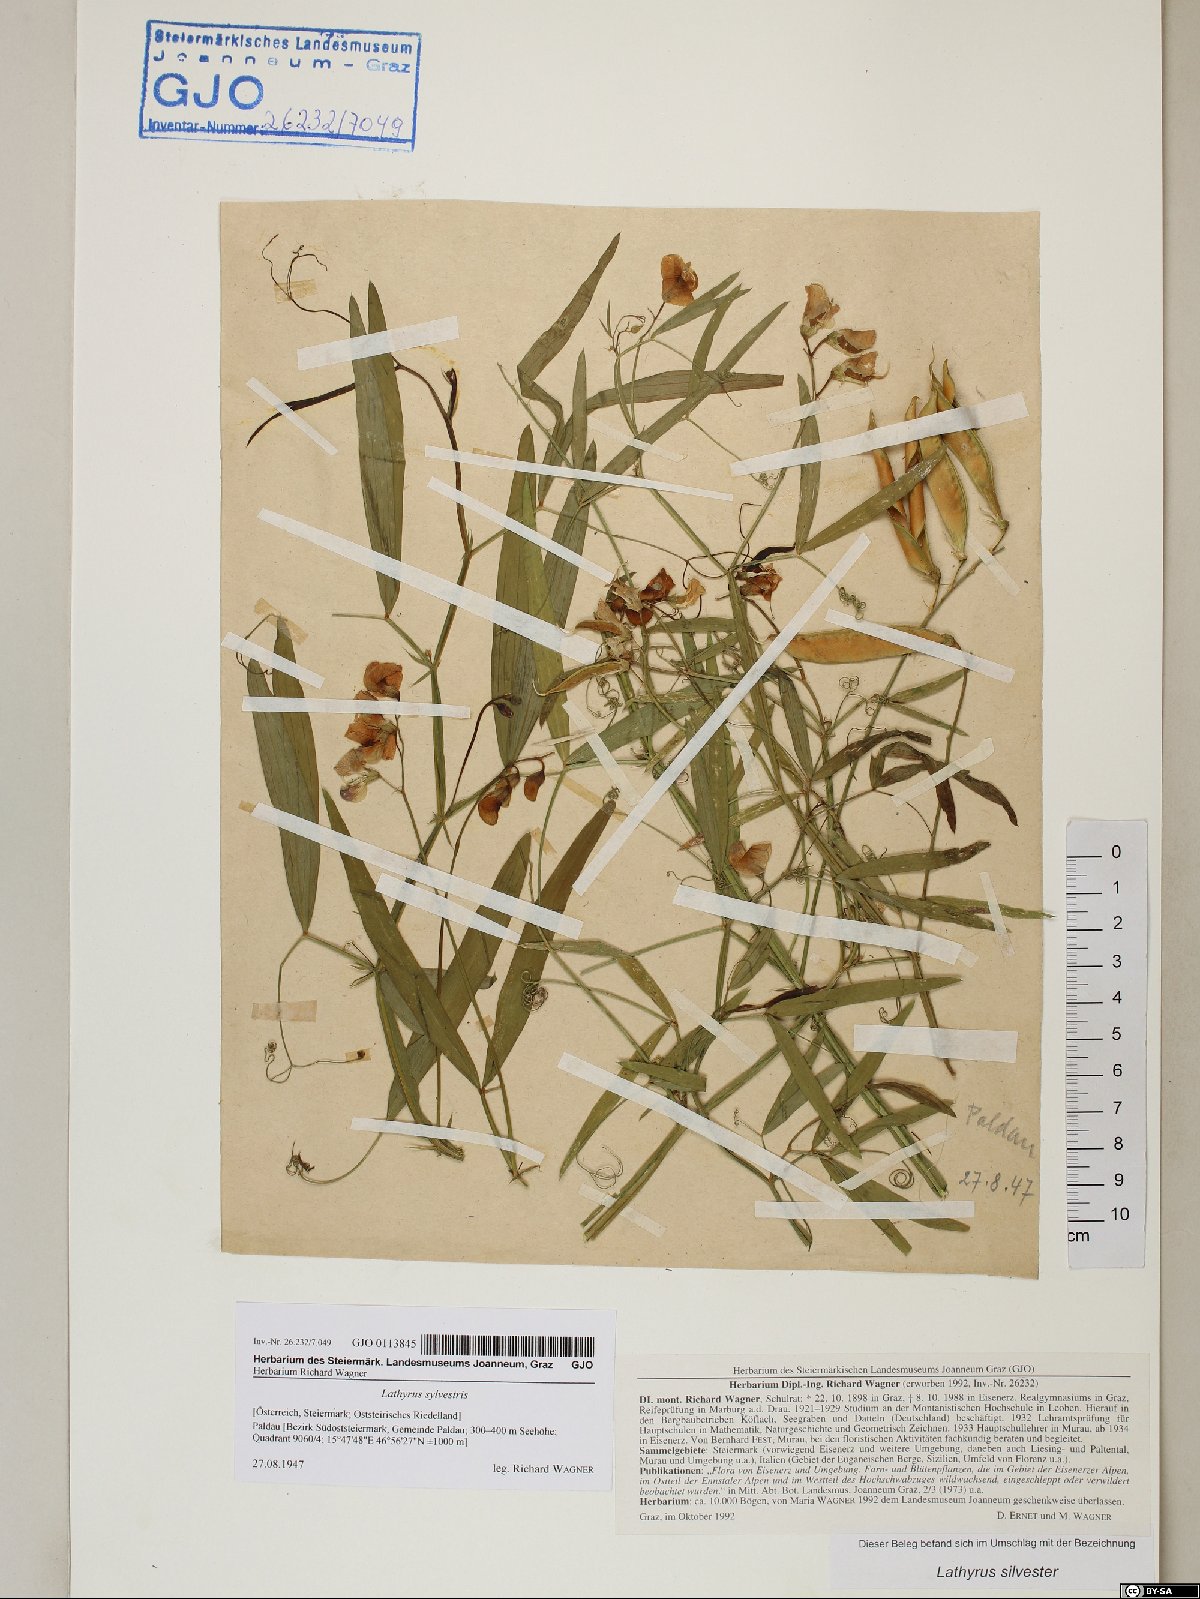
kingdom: Plantae
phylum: Tracheophyta
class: Magnoliopsida
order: Fabales
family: Fabaceae
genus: Lathyrus
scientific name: Lathyrus sylvestris
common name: Flat pea
